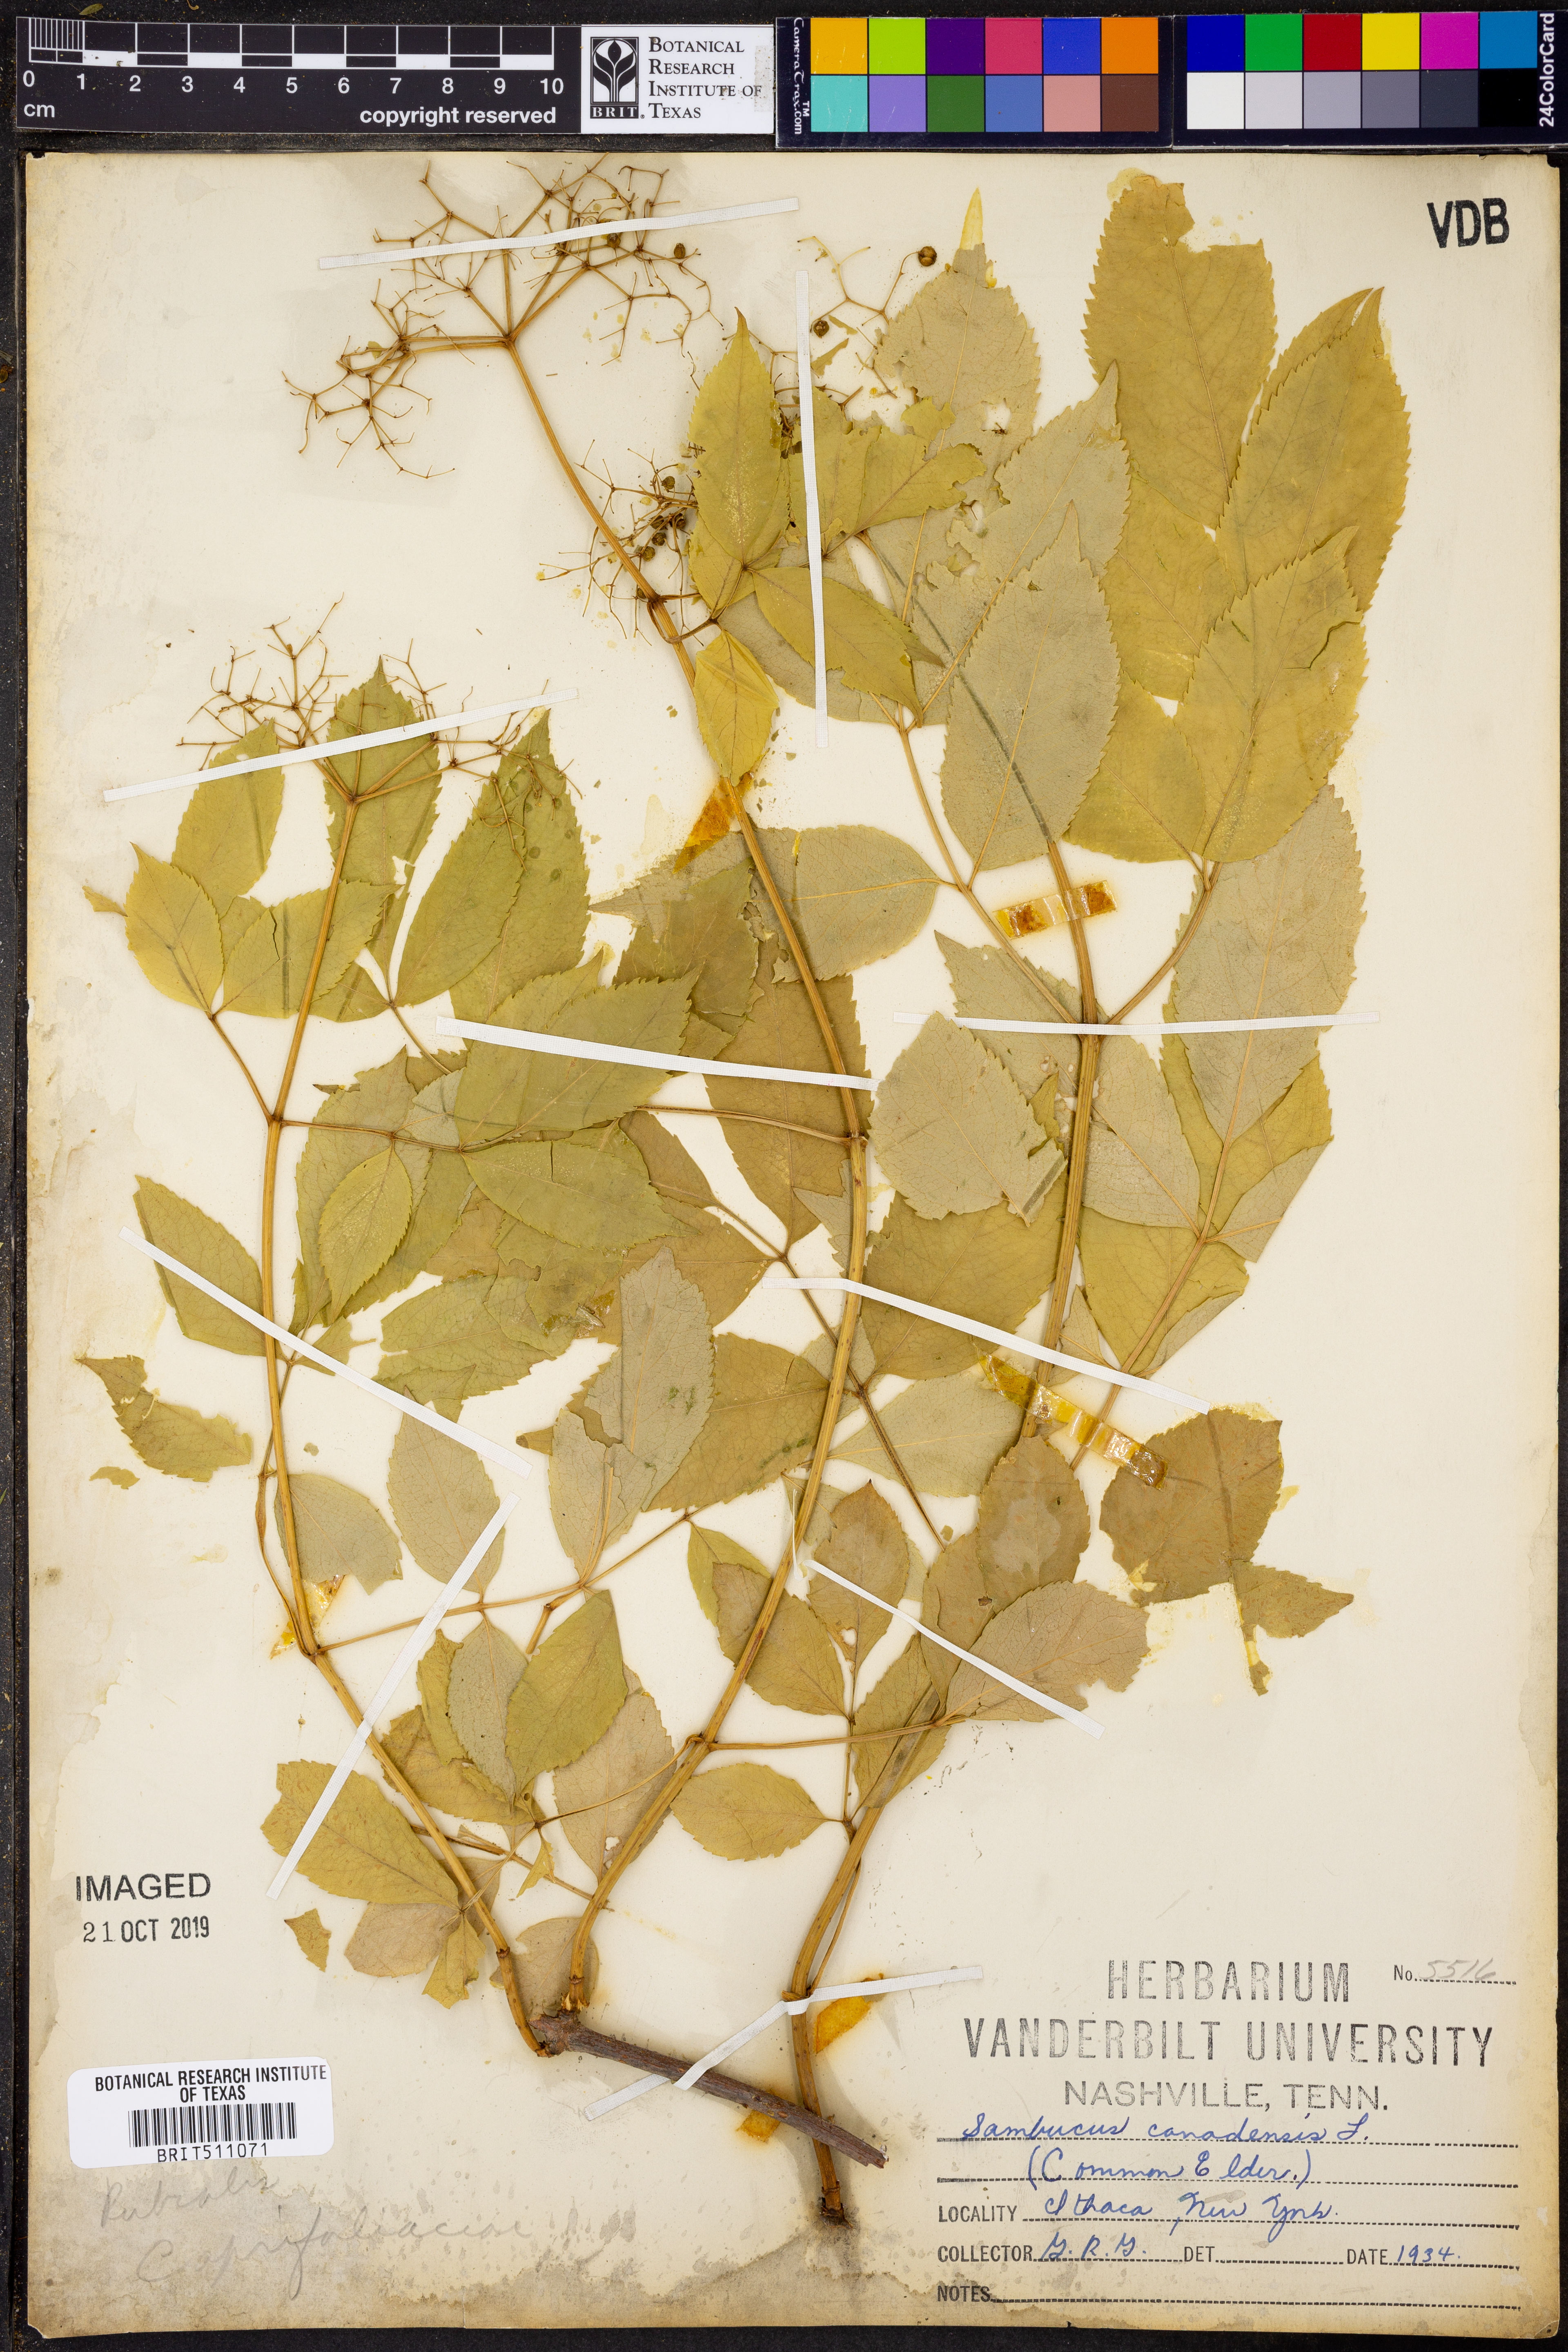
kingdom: Plantae
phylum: Tracheophyta
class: Magnoliopsida
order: Dipsacales
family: Viburnaceae
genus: Sambucus
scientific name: Sambucus canadensis
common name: American elder
